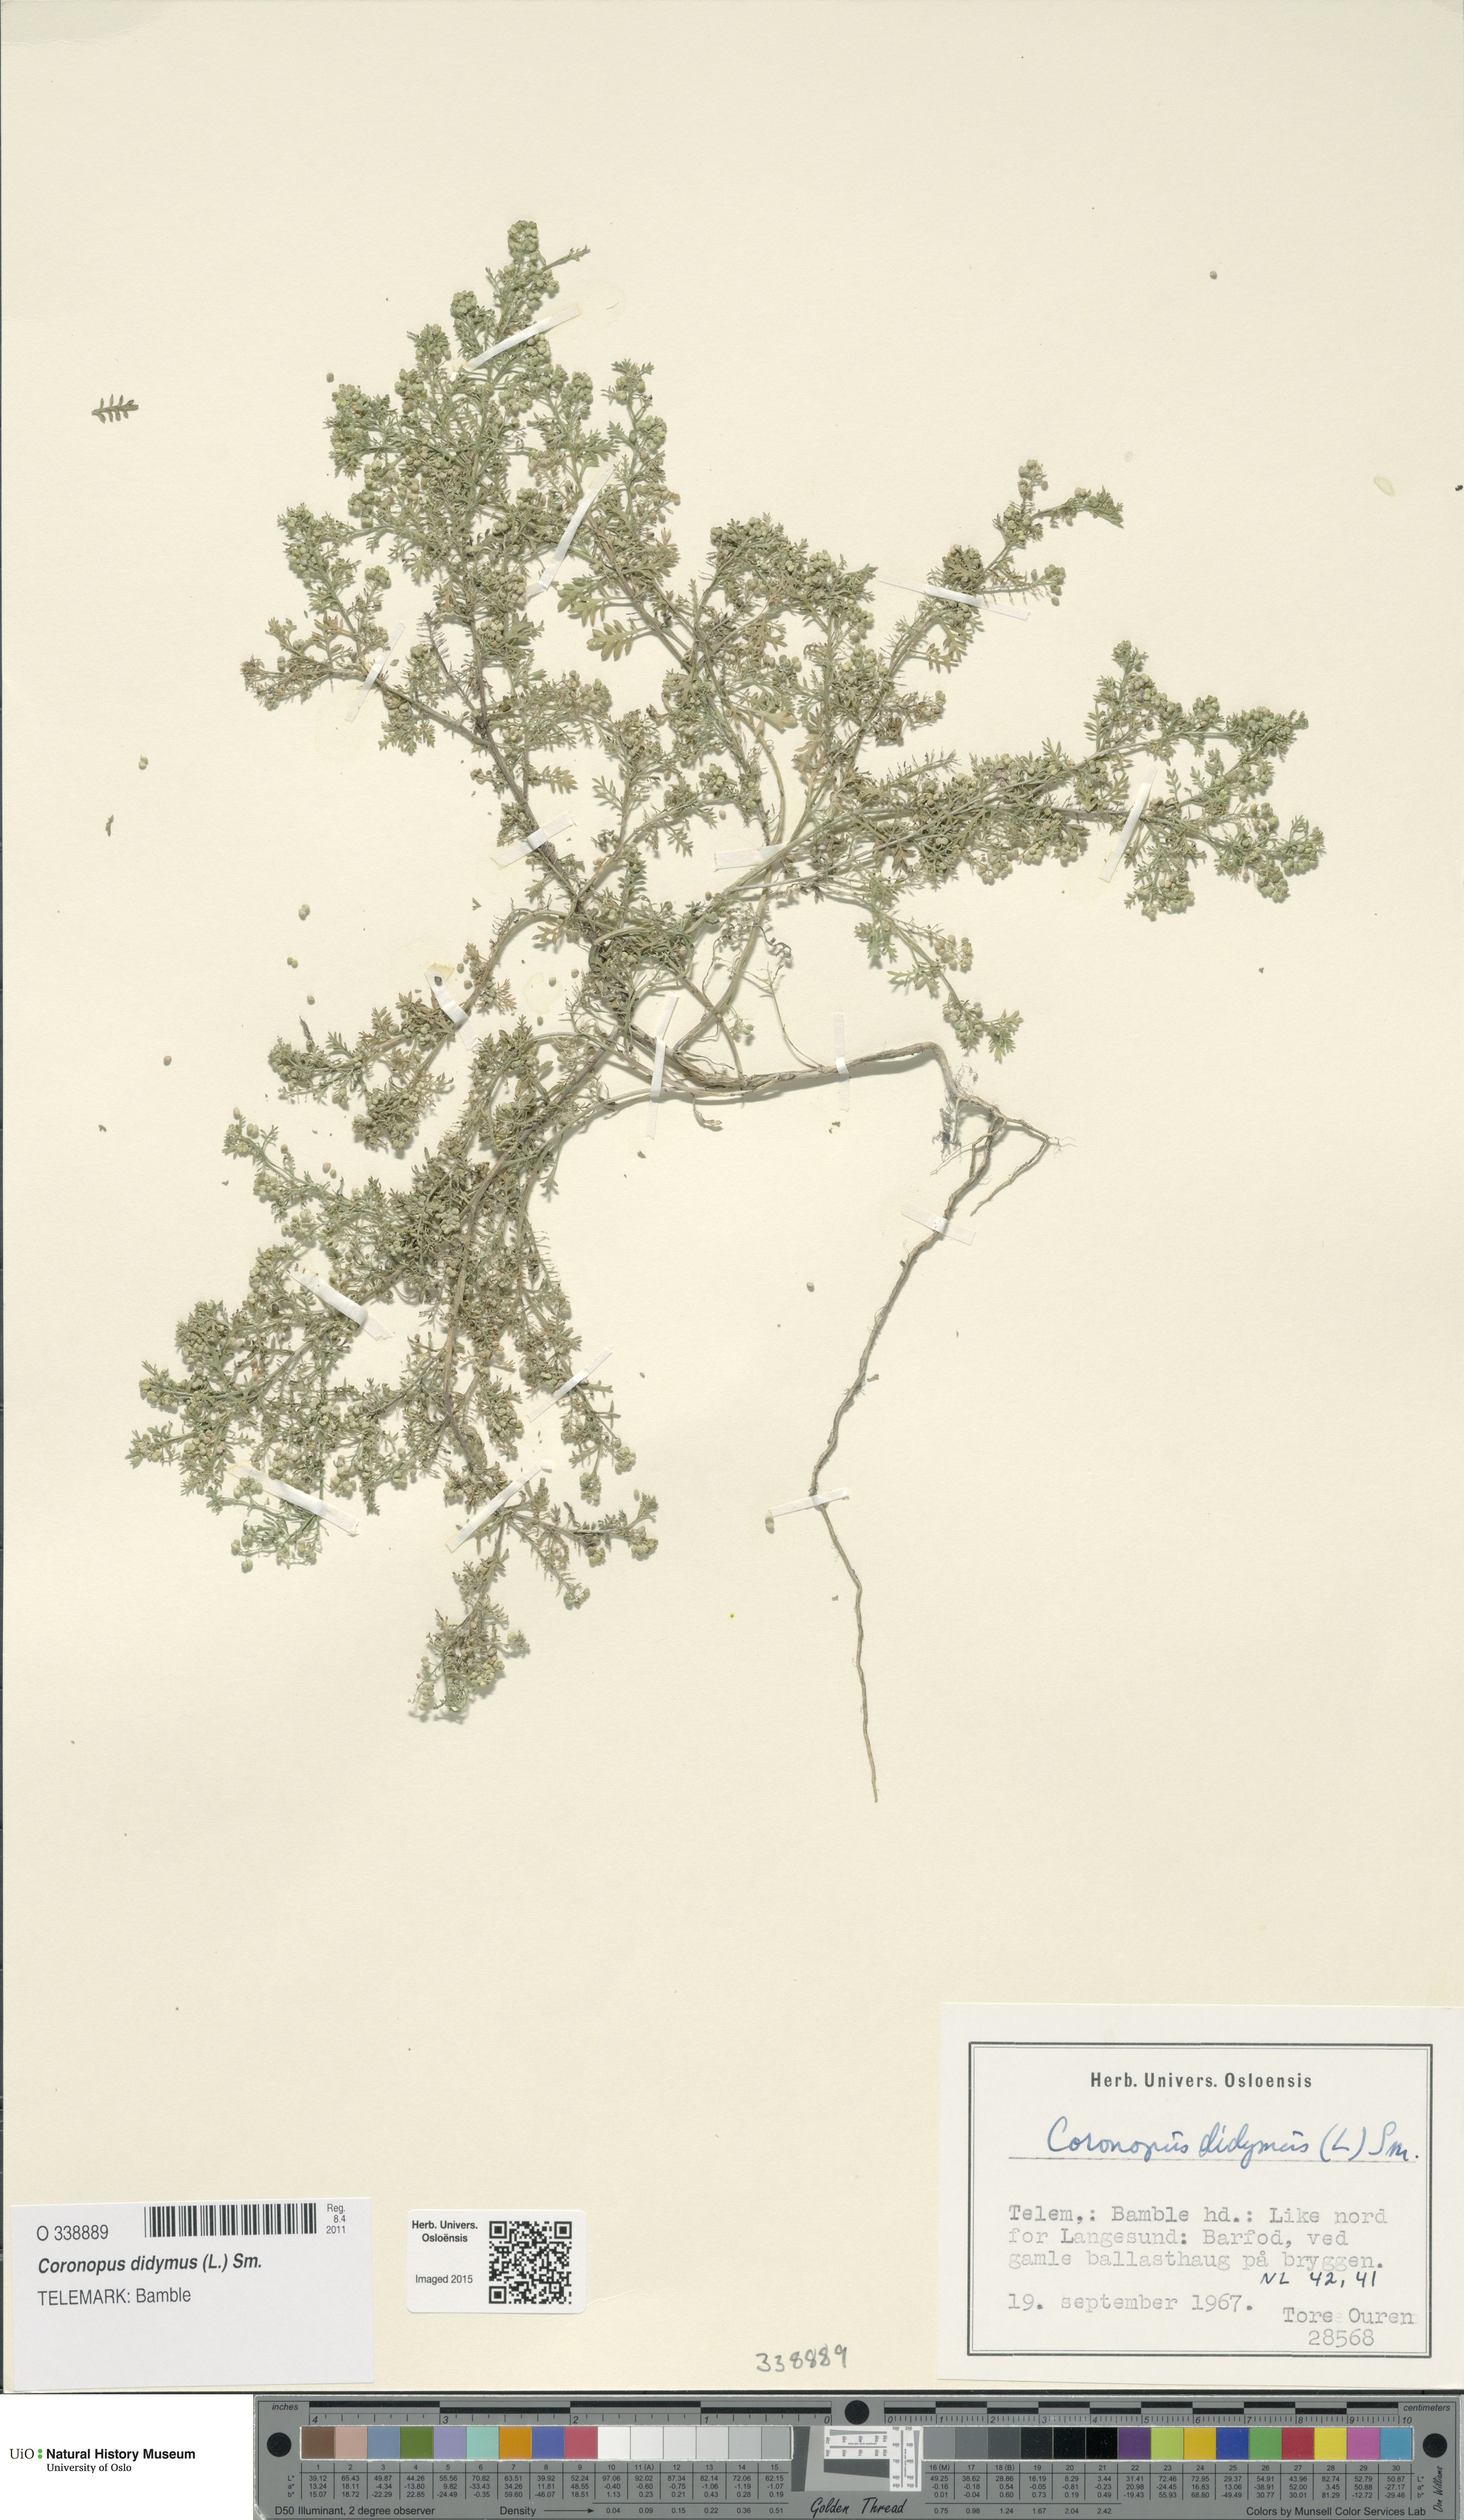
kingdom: Plantae
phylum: Tracheophyta
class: Magnoliopsida
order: Brassicales
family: Brassicaceae
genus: Lepidium
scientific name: Lepidium didymum
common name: Lesser swinecress
